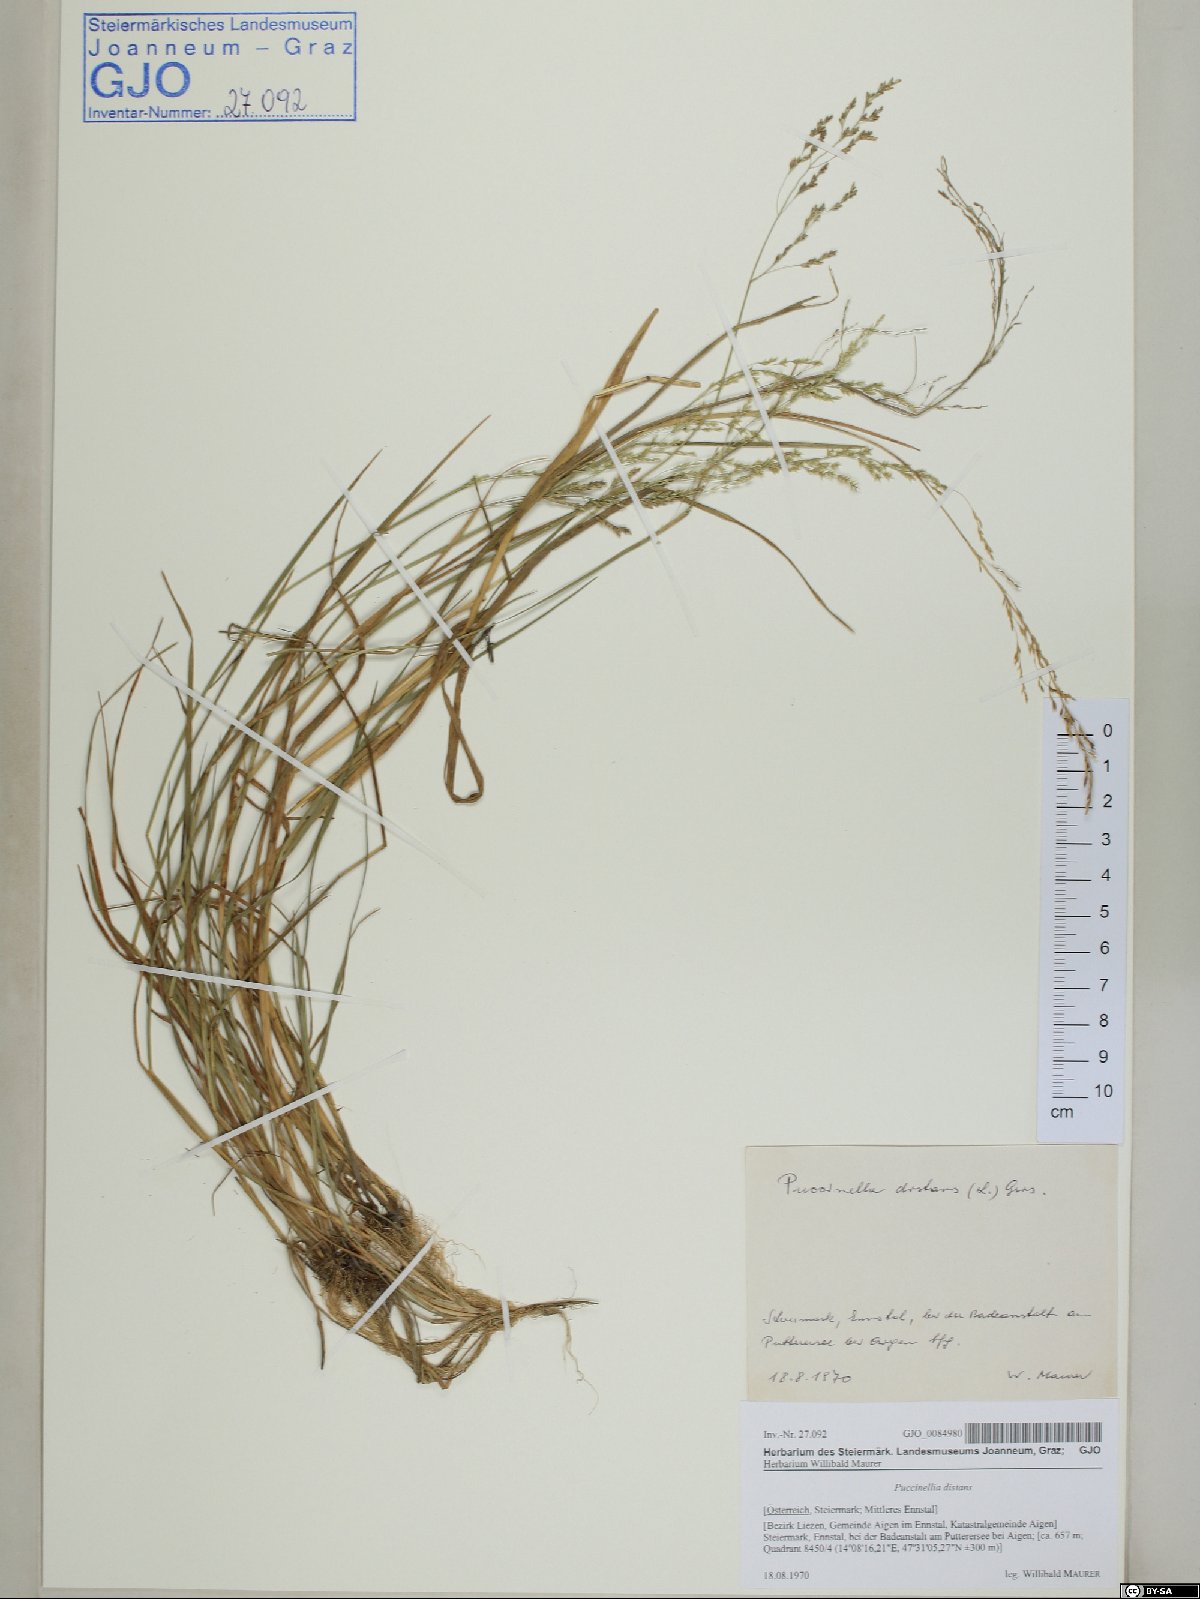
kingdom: Plantae
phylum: Tracheophyta
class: Liliopsida
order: Poales
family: Poaceae
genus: Puccinellia
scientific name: Puccinellia distans
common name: Weeping alkaligrass
